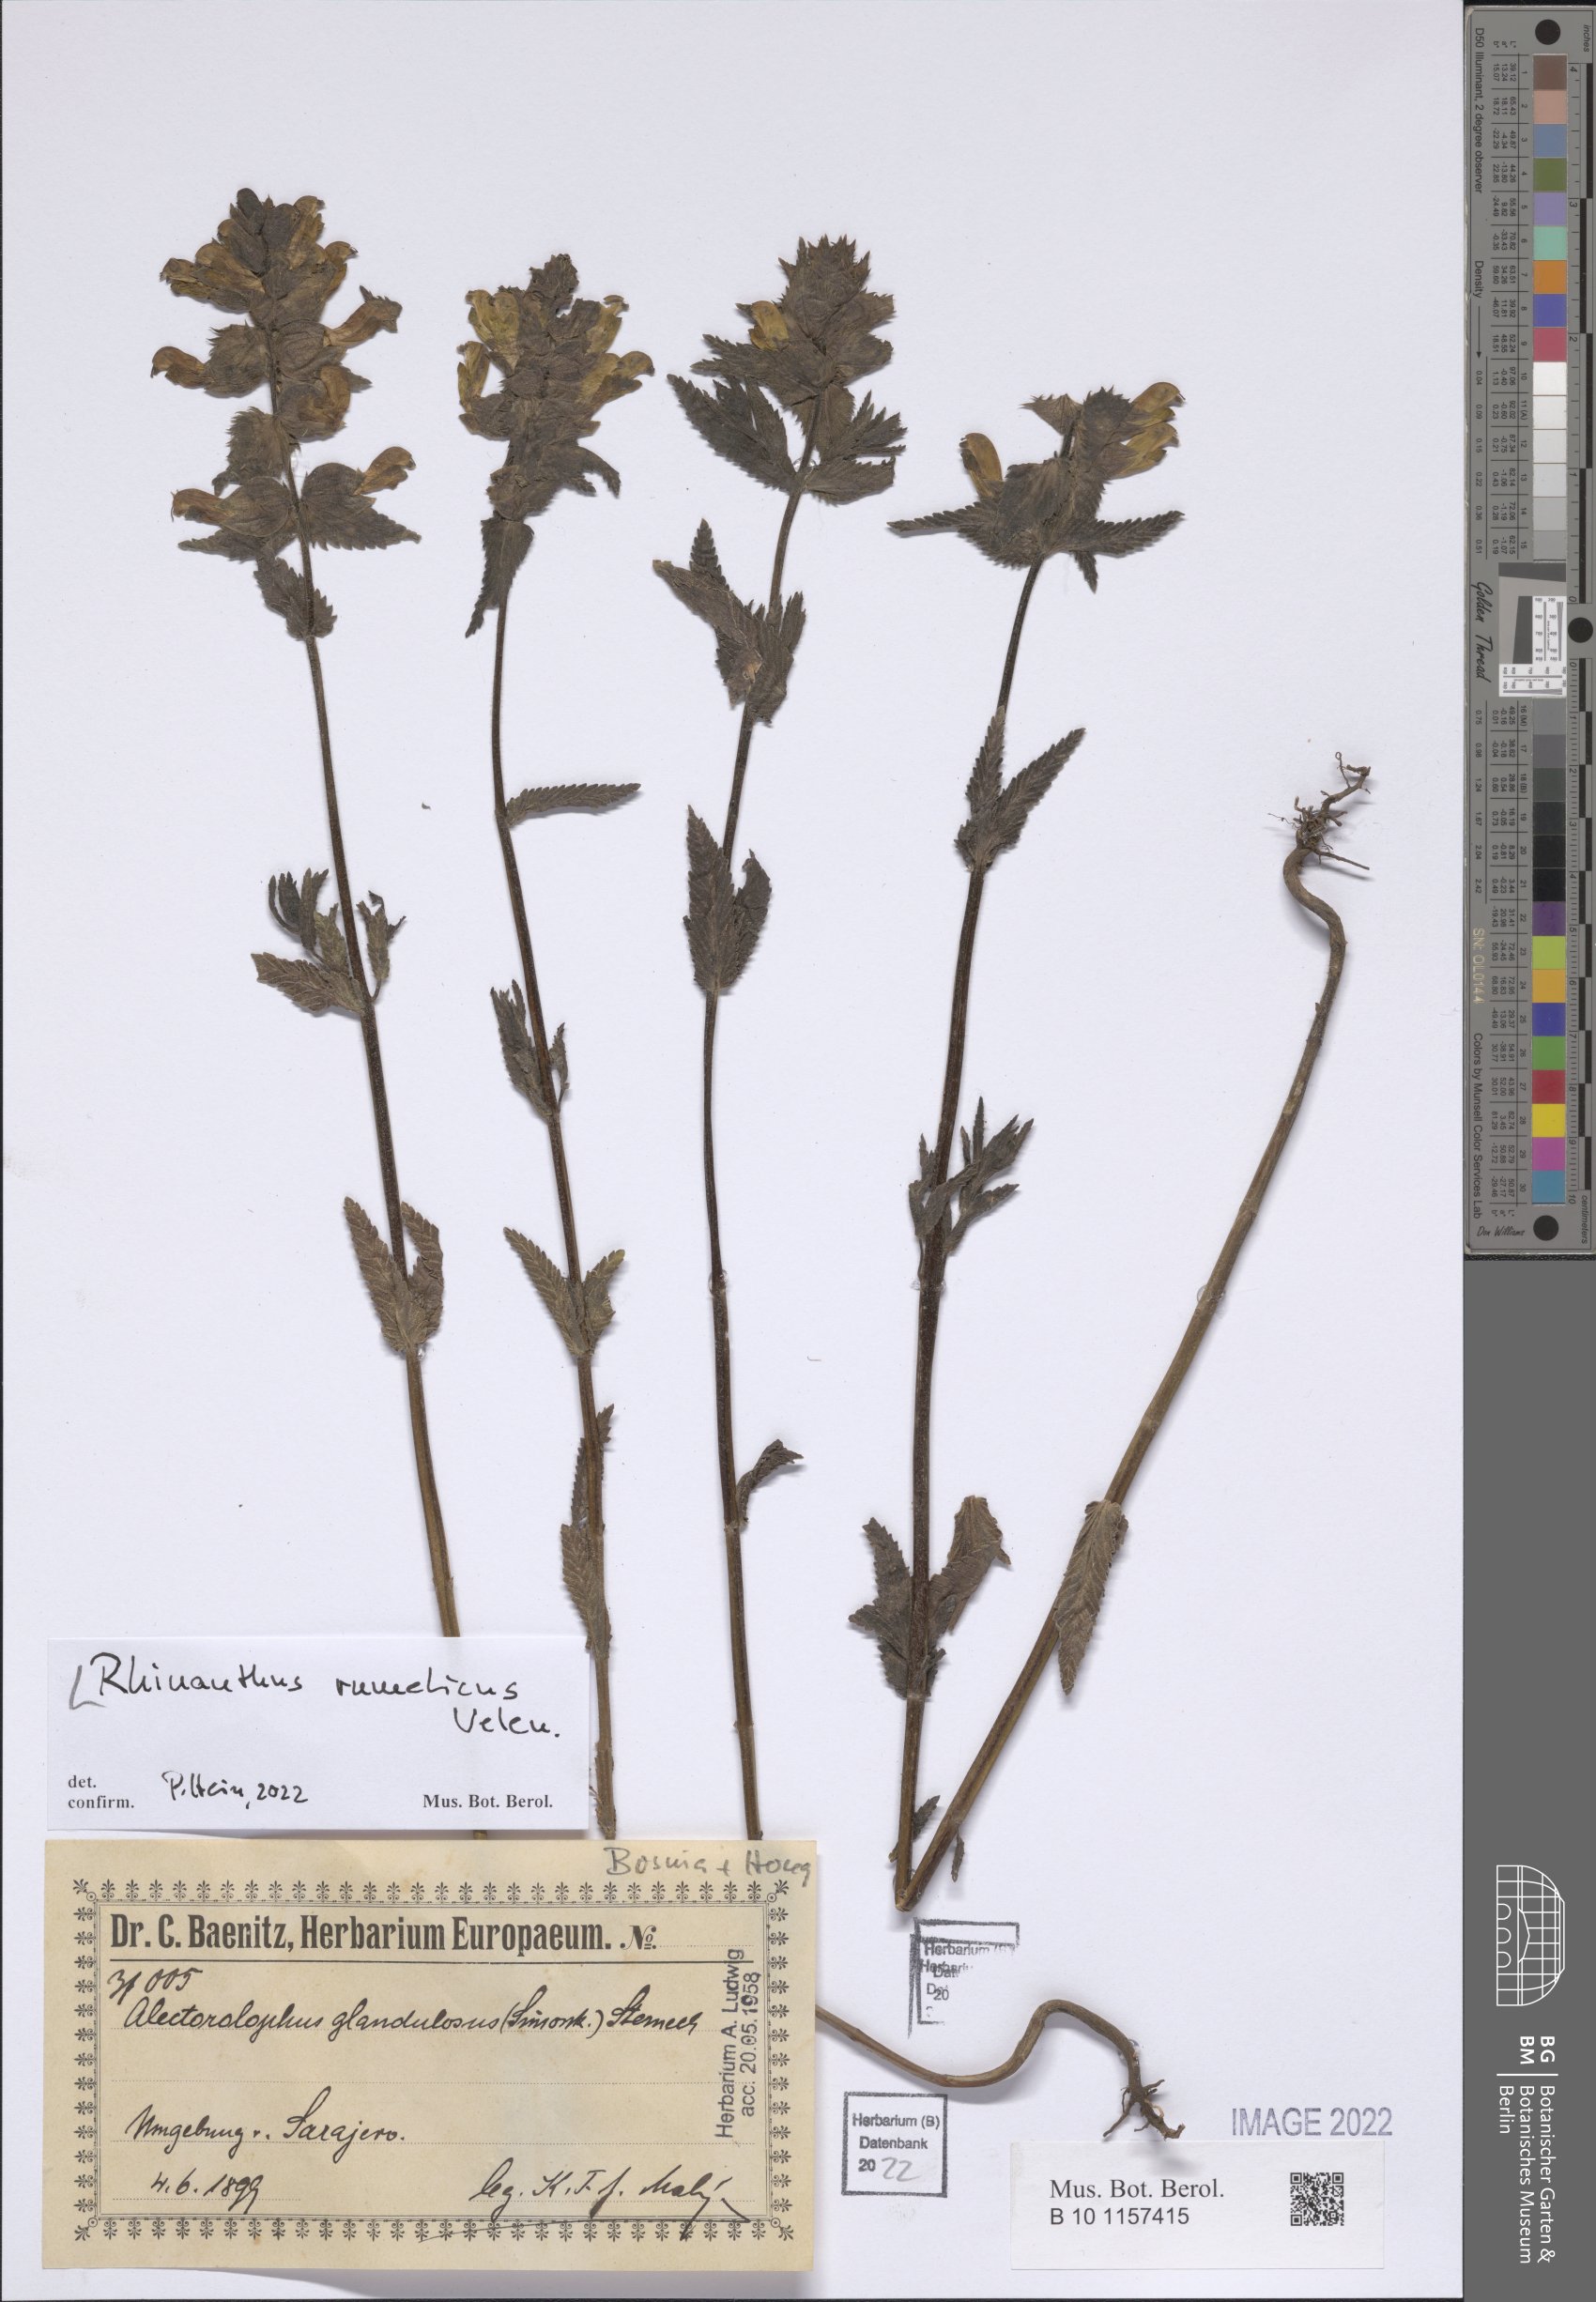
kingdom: Plantae
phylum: Tracheophyta
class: Magnoliopsida
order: Lamiales
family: Orobanchaceae
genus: Rhinanthus
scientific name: Rhinanthus rumelicus
